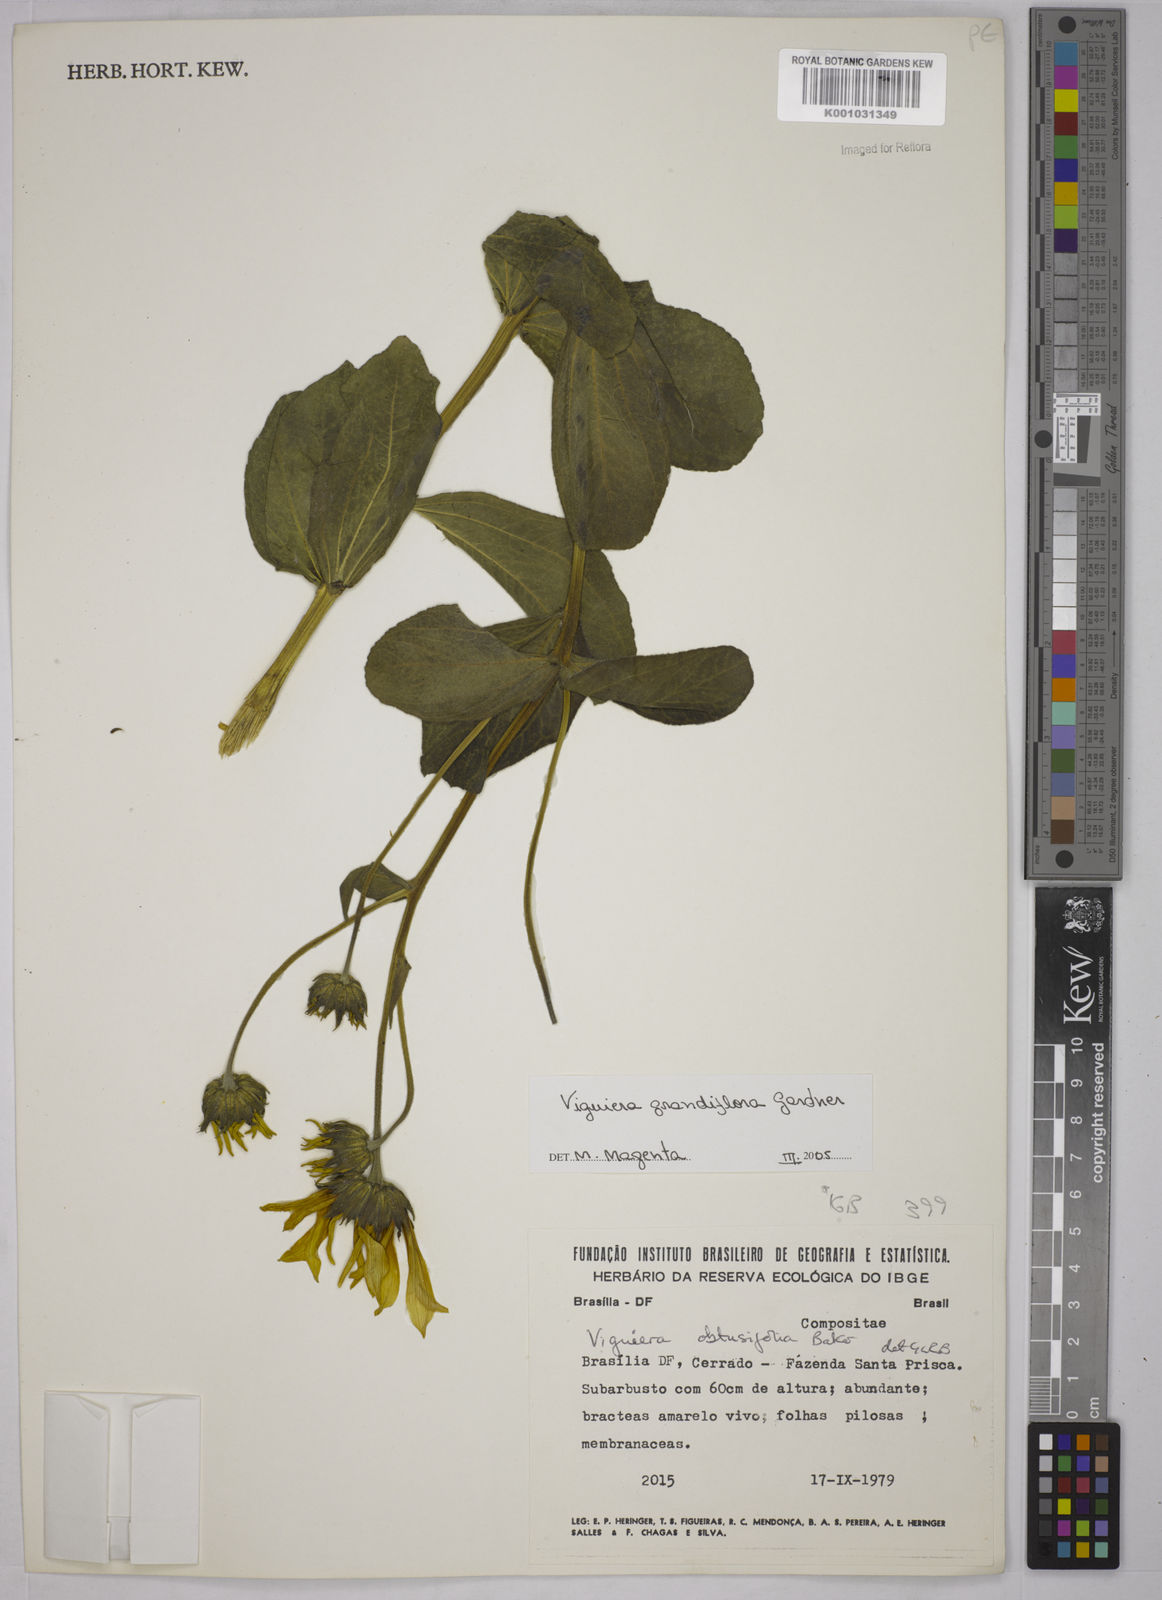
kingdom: Plantae
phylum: Tracheophyta
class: Magnoliopsida
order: Asterales
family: Asteraceae
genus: Aldama
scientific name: Aldama grandiflora
